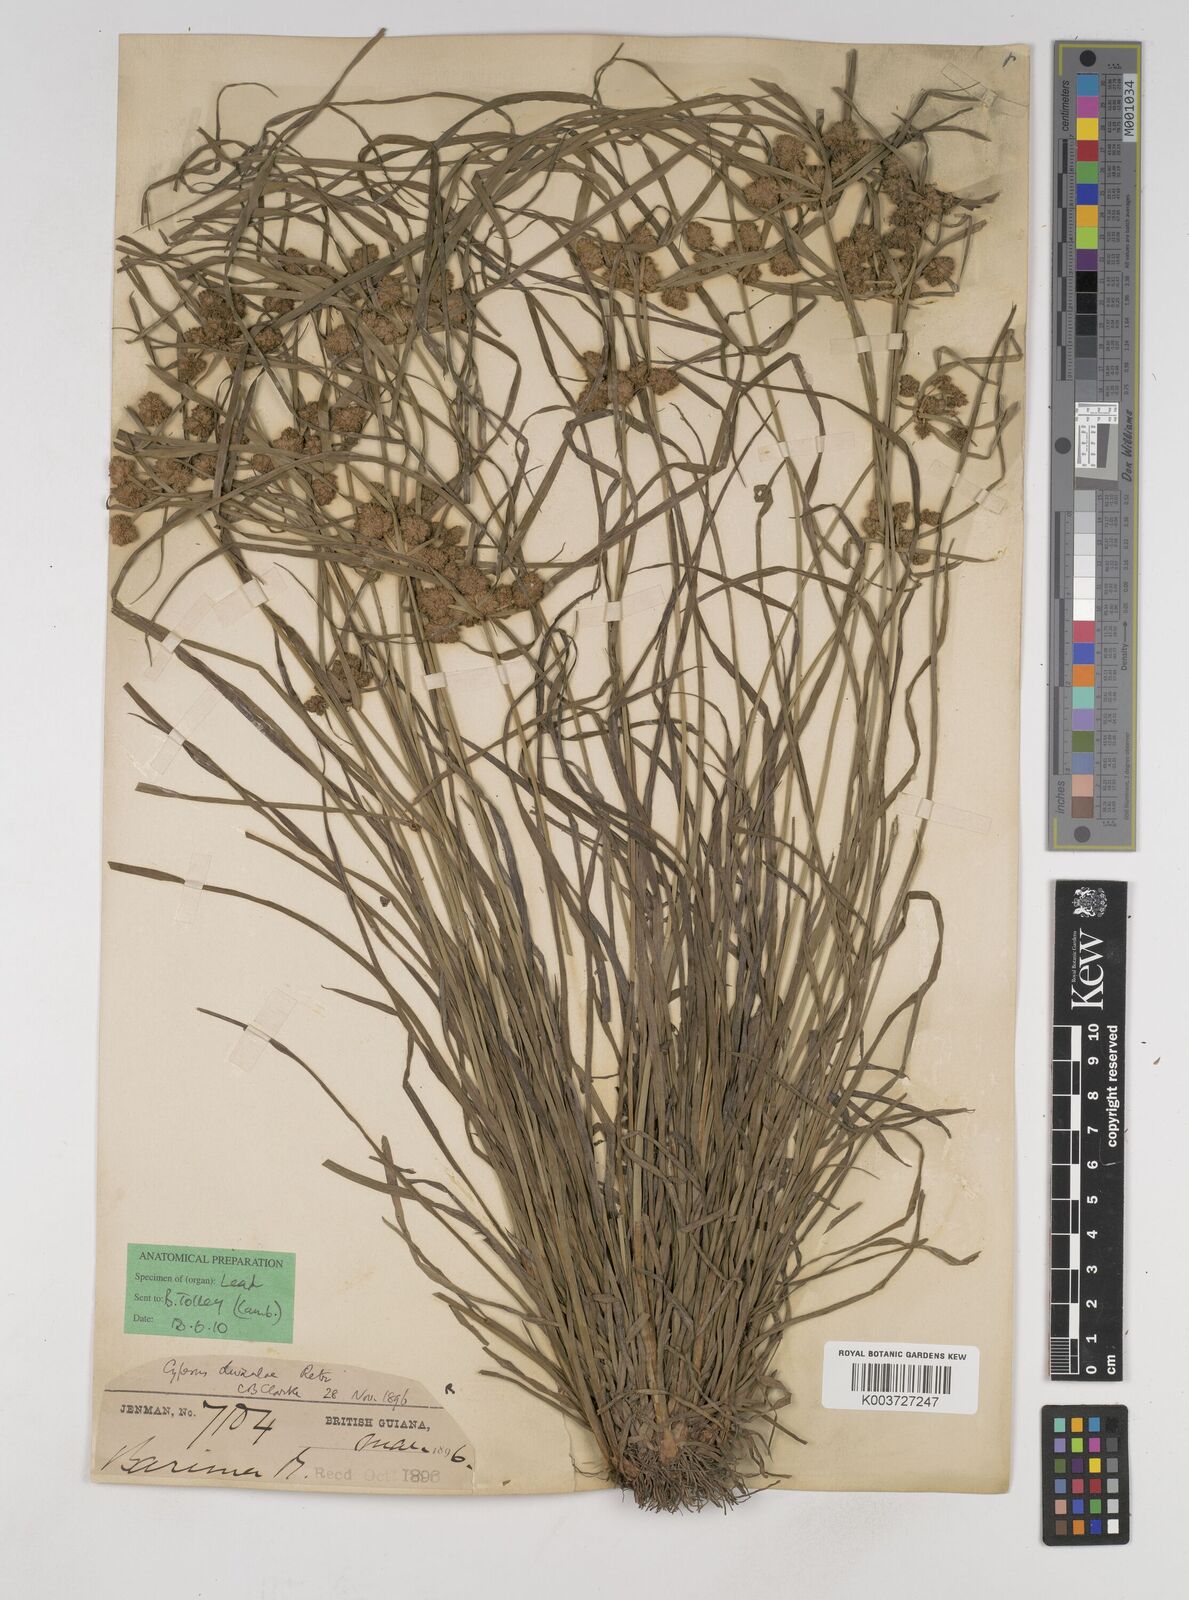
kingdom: Plantae
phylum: Tracheophyta
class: Liliopsida
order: Poales
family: Cyperaceae
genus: Cyperus
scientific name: Cyperus luzulae
